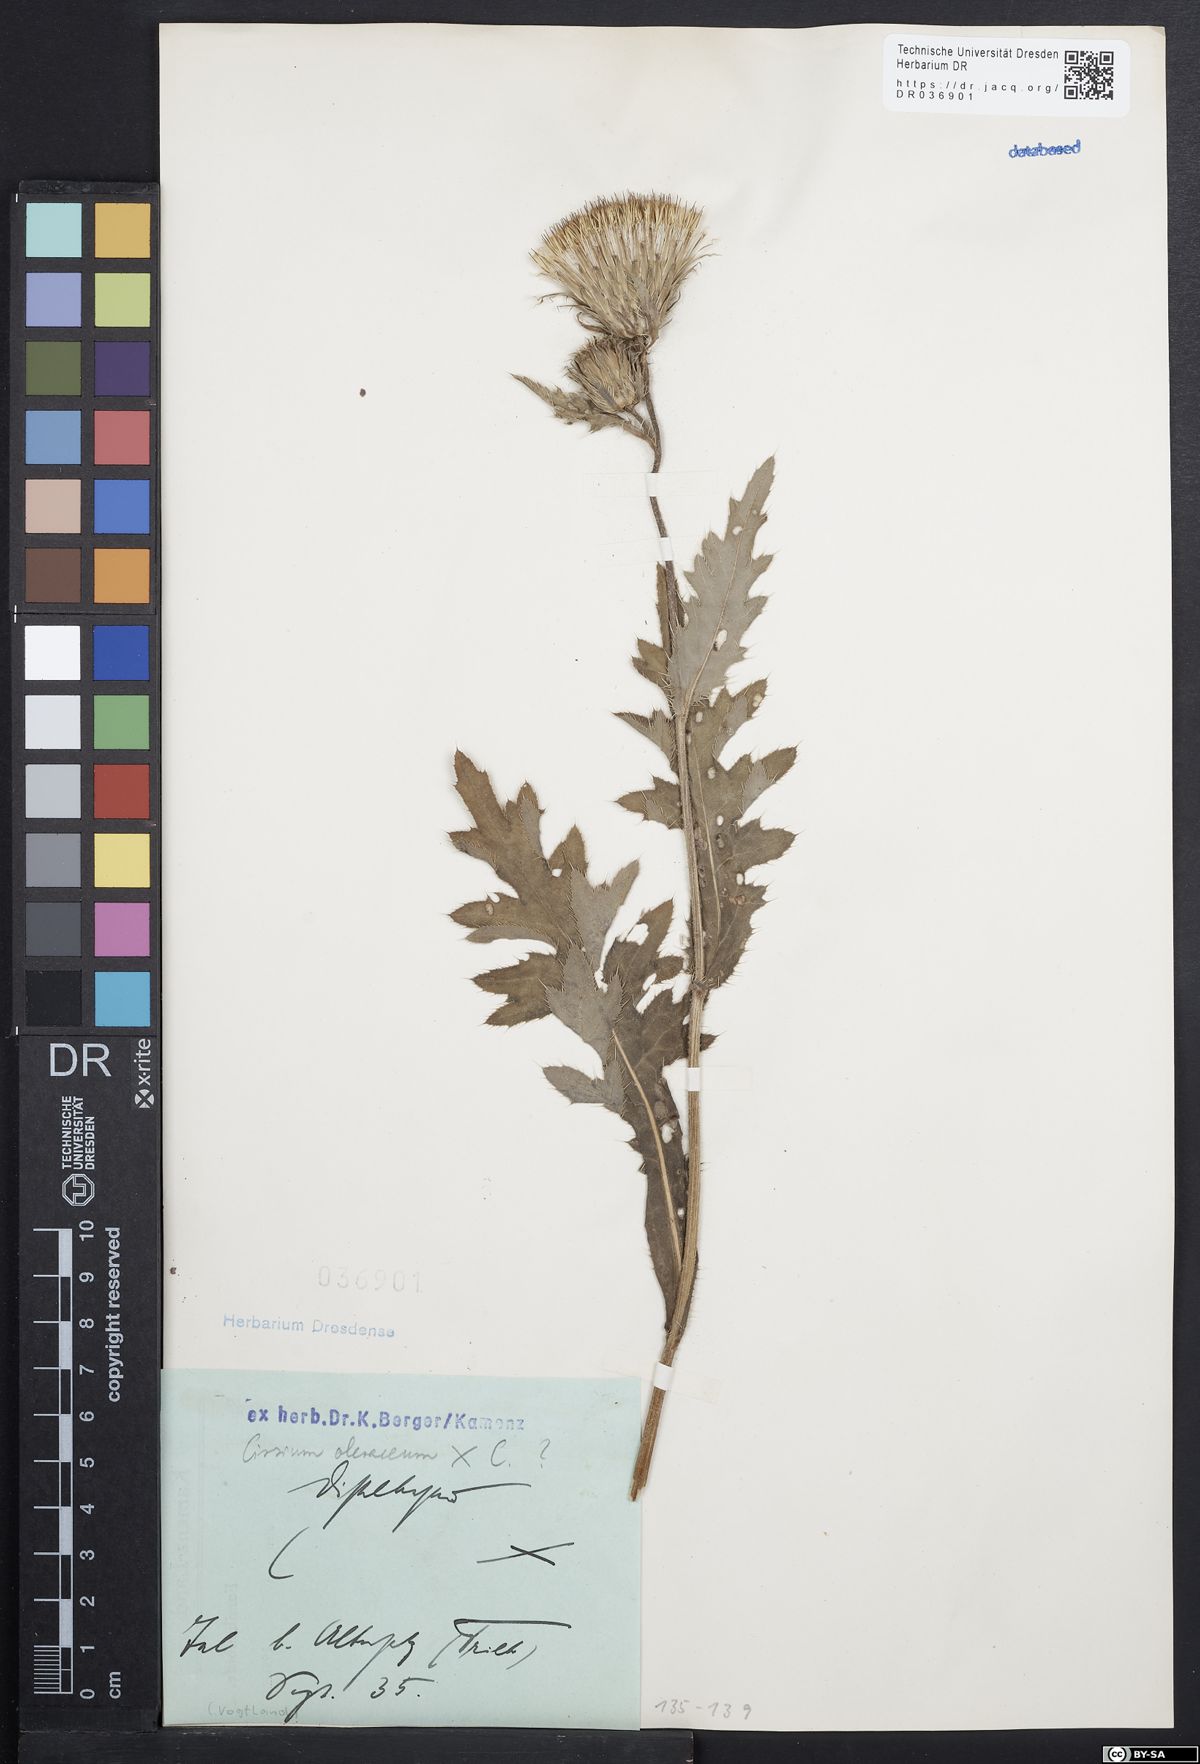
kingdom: Plantae
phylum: Tracheophyta
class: Magnoliopsida
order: Asterales
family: Asteraceae
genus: Cirsium
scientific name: Cirsium oleraceum
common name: Cabbage thistle
